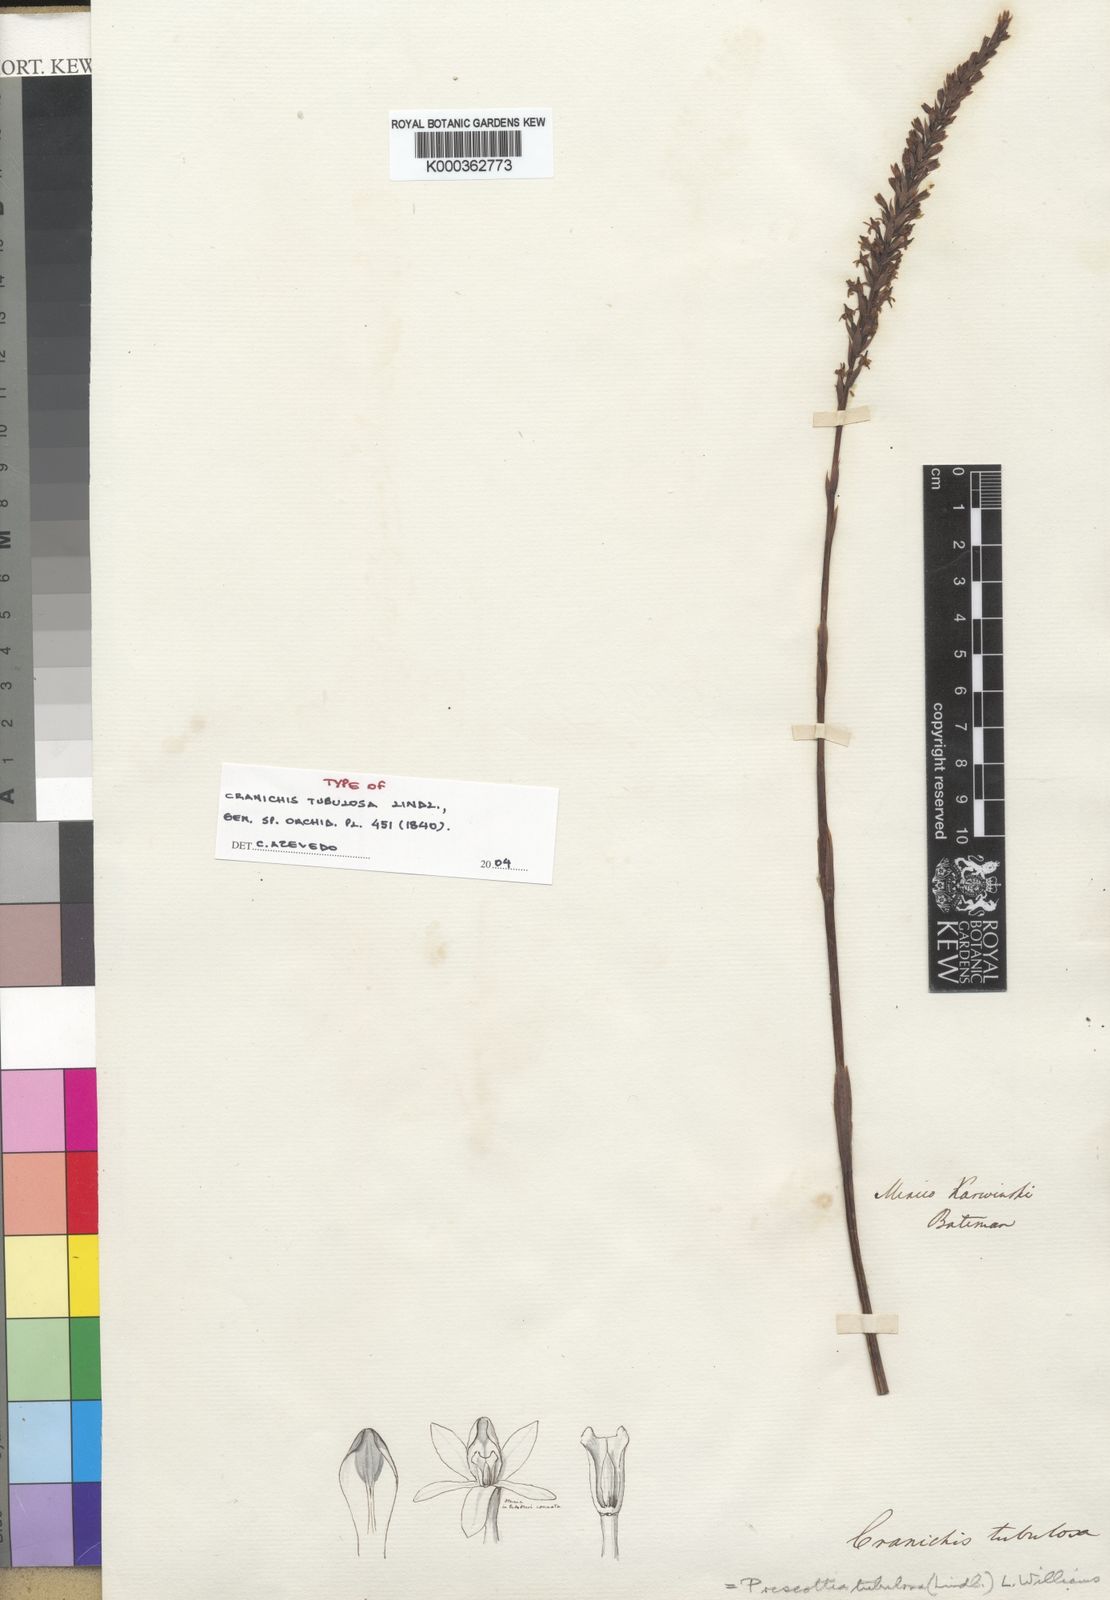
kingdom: Plantae
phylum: Tracheophyta
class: Liliopsida
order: Asparagales
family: Orchidaceae
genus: Galeoglossum
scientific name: Galeoglossum tubulosum
